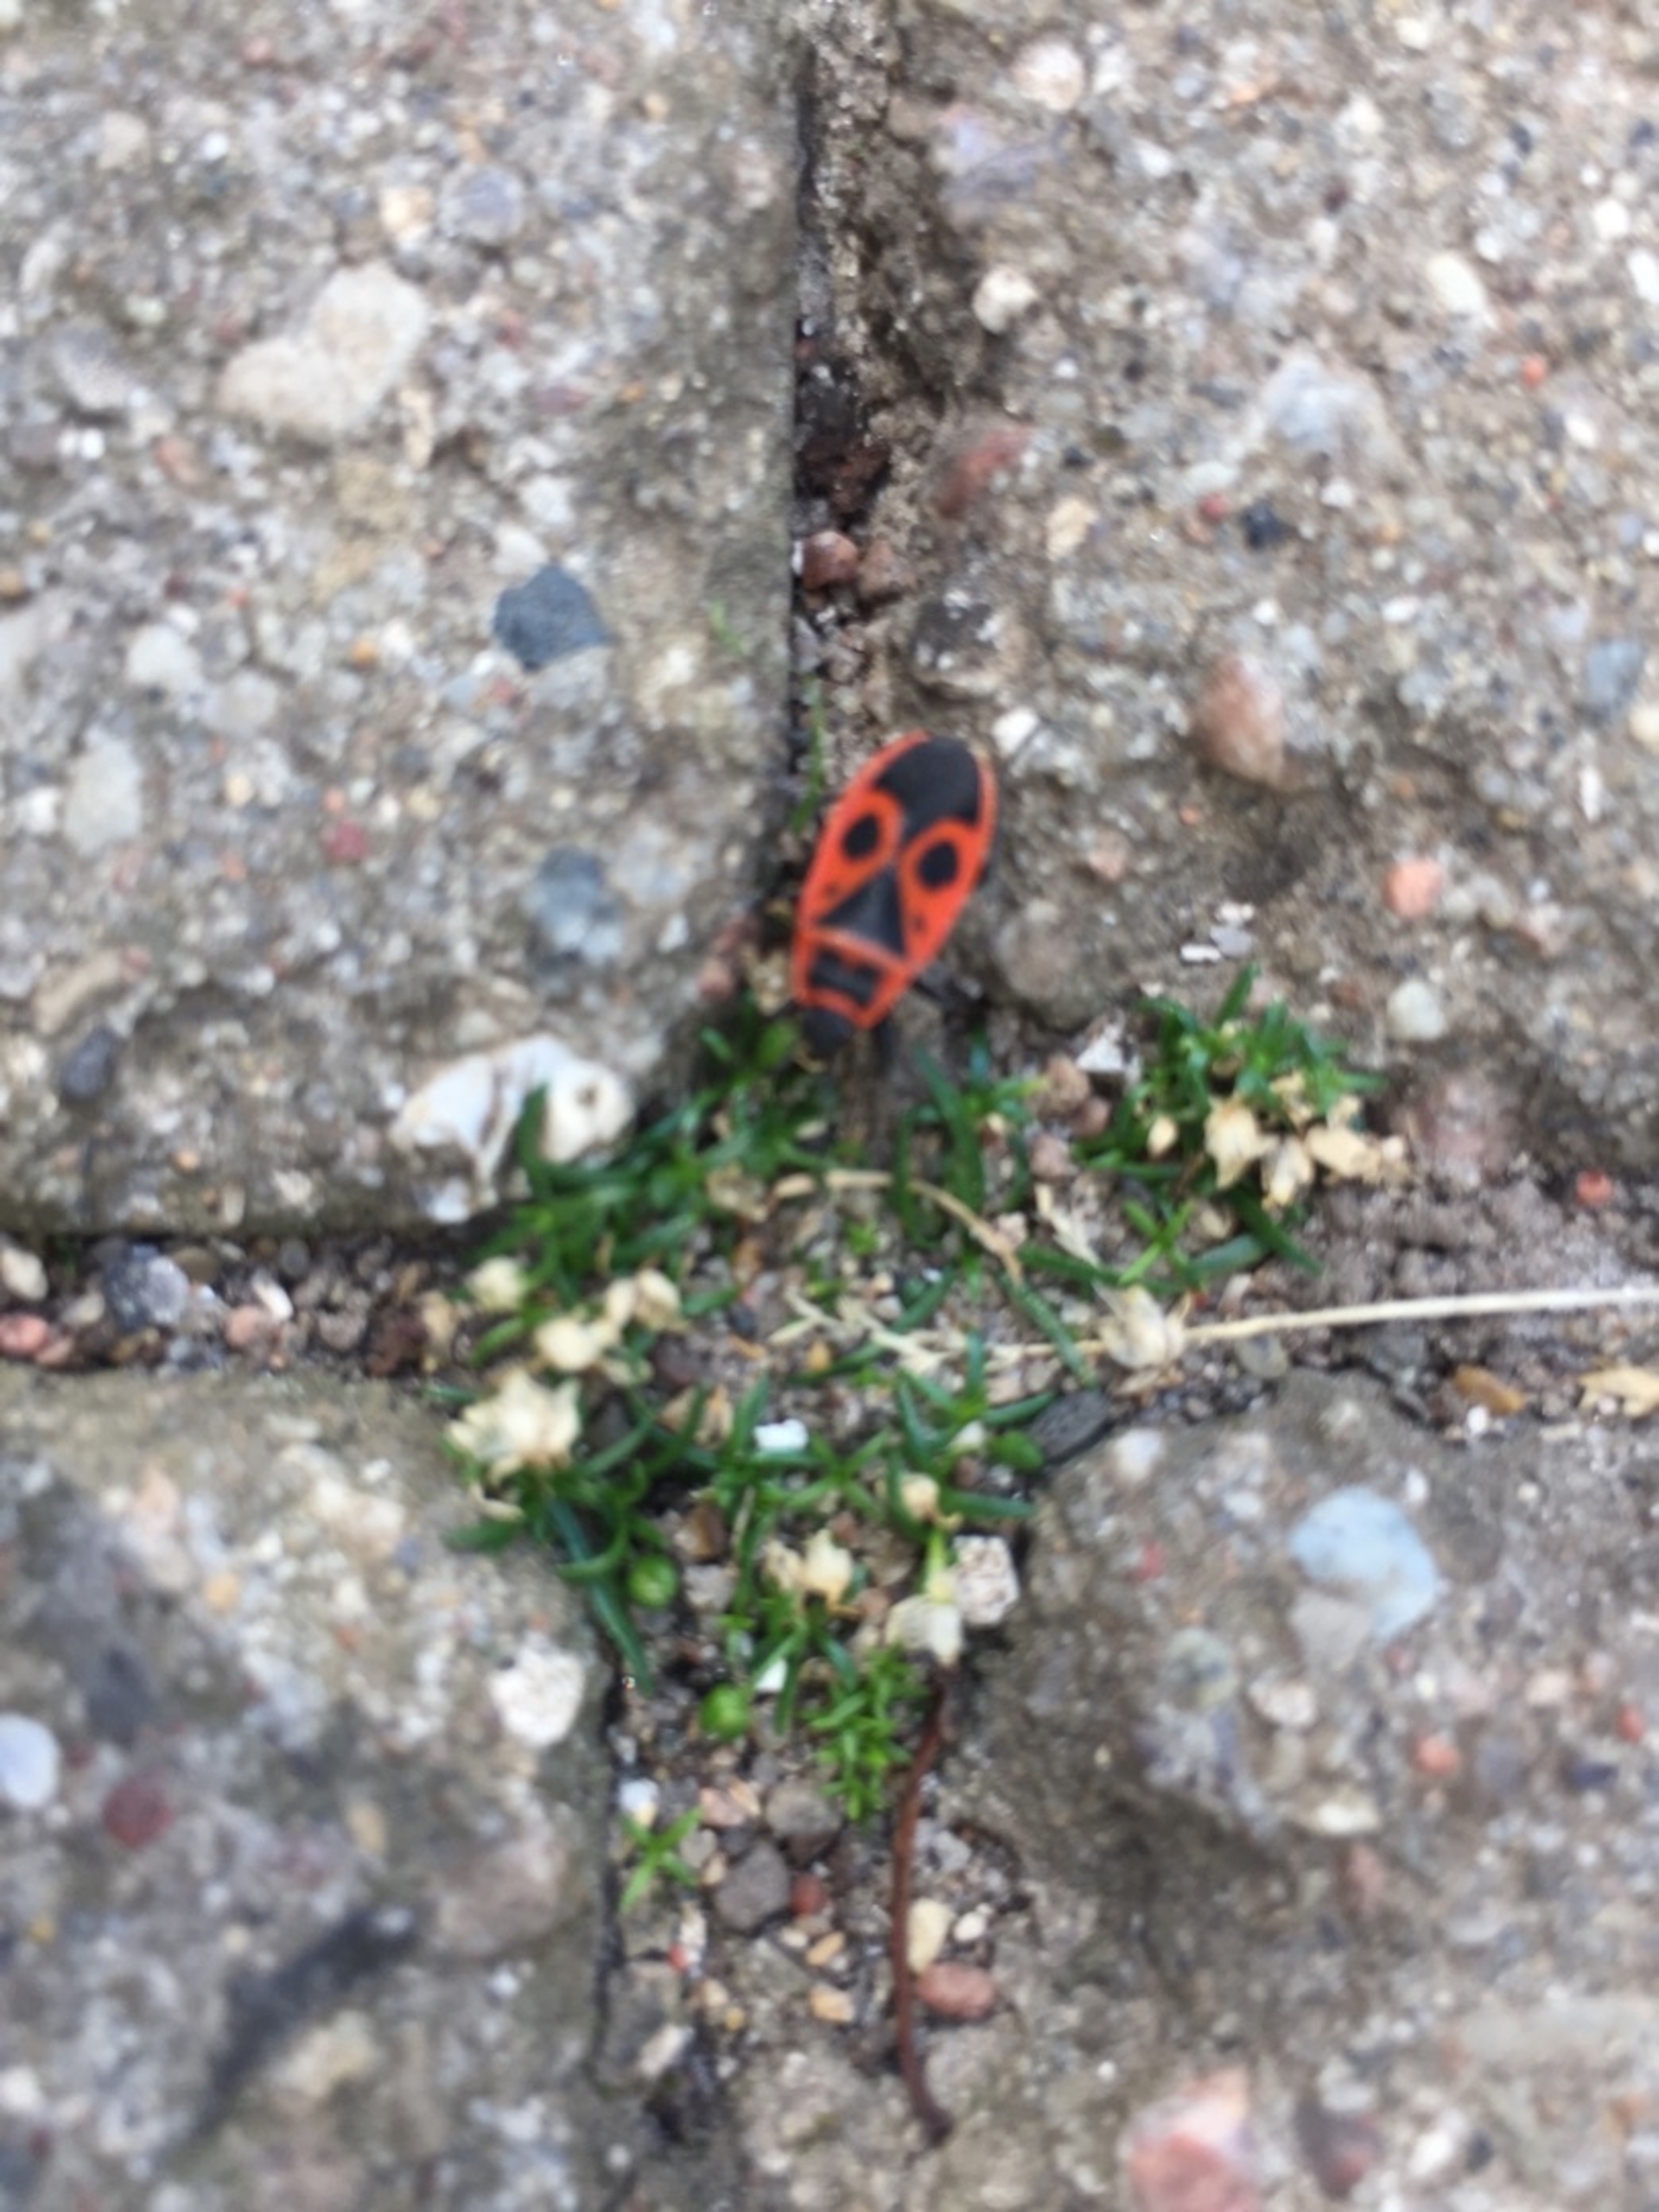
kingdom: Animalia
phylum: Arthropoda
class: Insecta
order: Hemiptera
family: Pyrrhocoridae
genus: Pyrrhocoris
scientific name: Pyrrhocoris apterus
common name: Ildtæge
